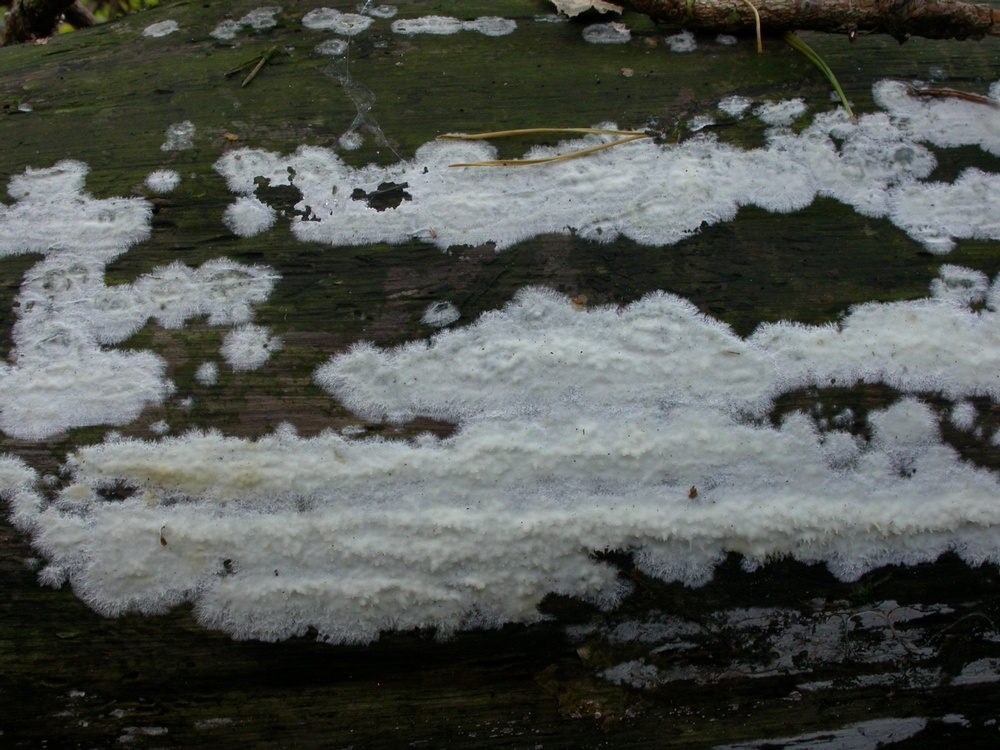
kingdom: Fungi
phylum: Basidiomycota
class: Agaricomycetes
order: Polyporales
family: Phanerochaetaceae
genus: Phlebiopsis
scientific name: Phlebiopsis gigantea
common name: kæmpebarksvamp
